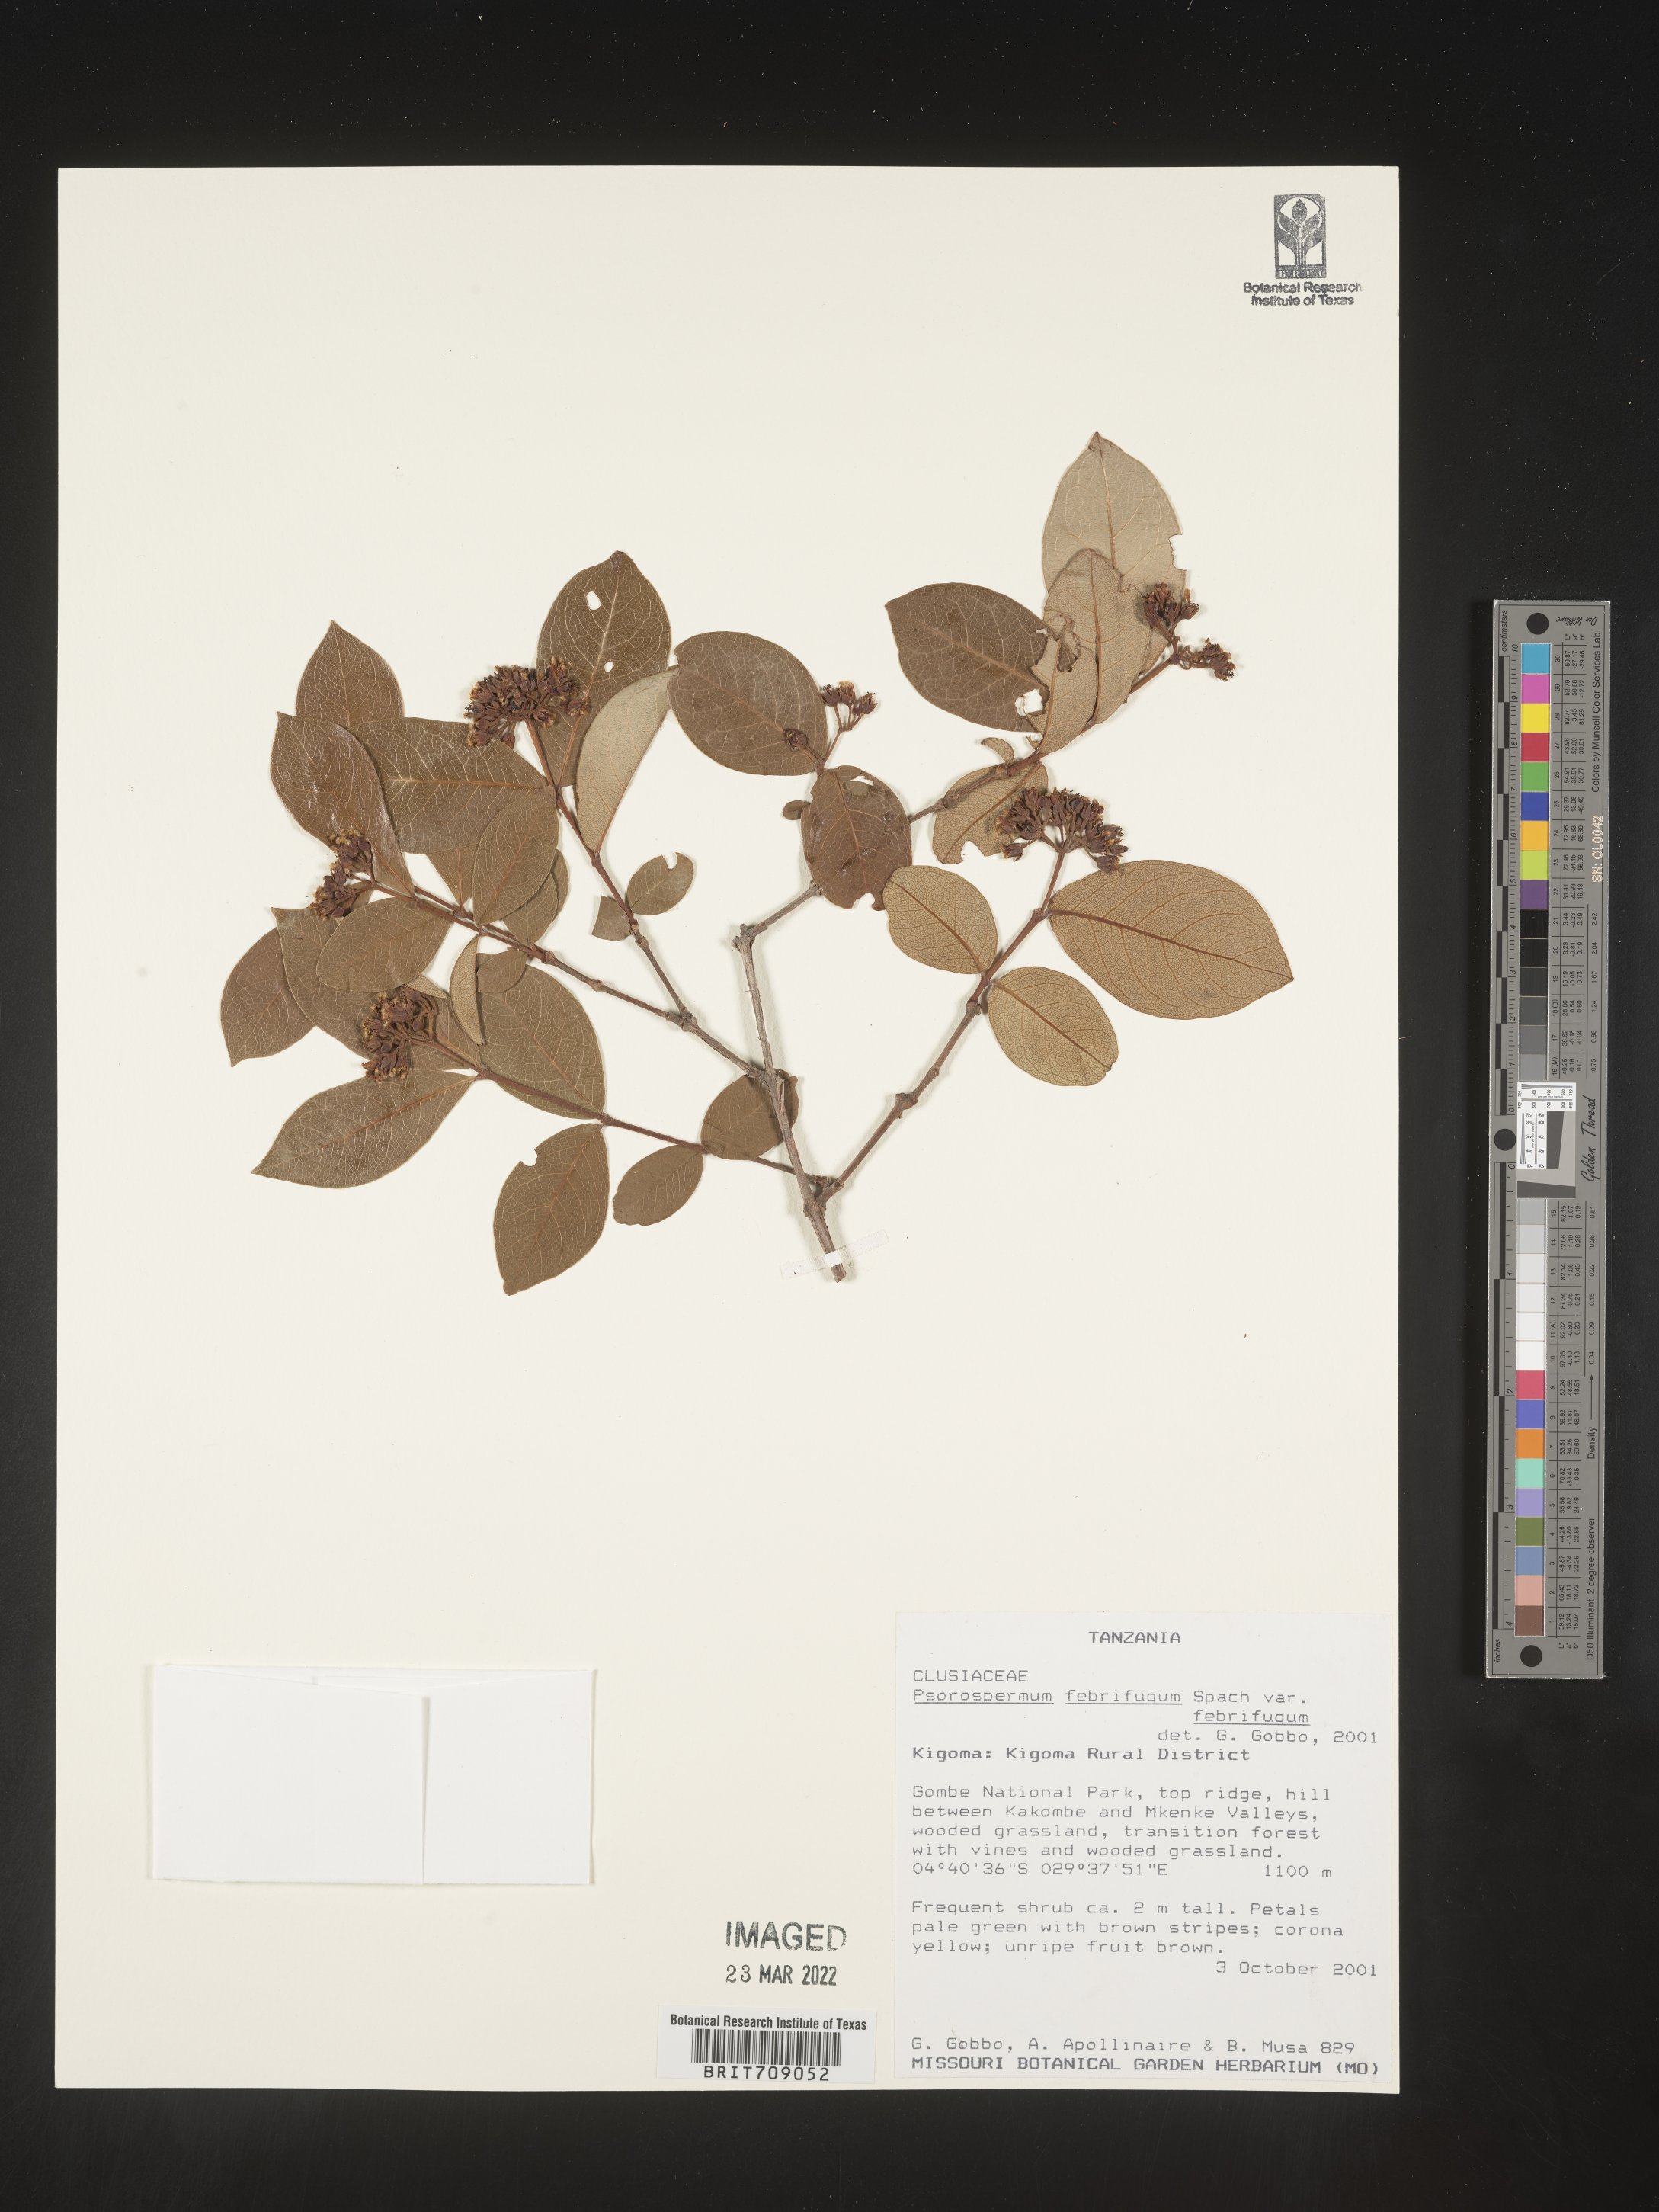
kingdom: Plantae
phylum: Tracheophyta
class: Magnoliopsida
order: Malpighiales
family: Hypericaceae
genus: Psorospermum
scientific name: Psorospermum
